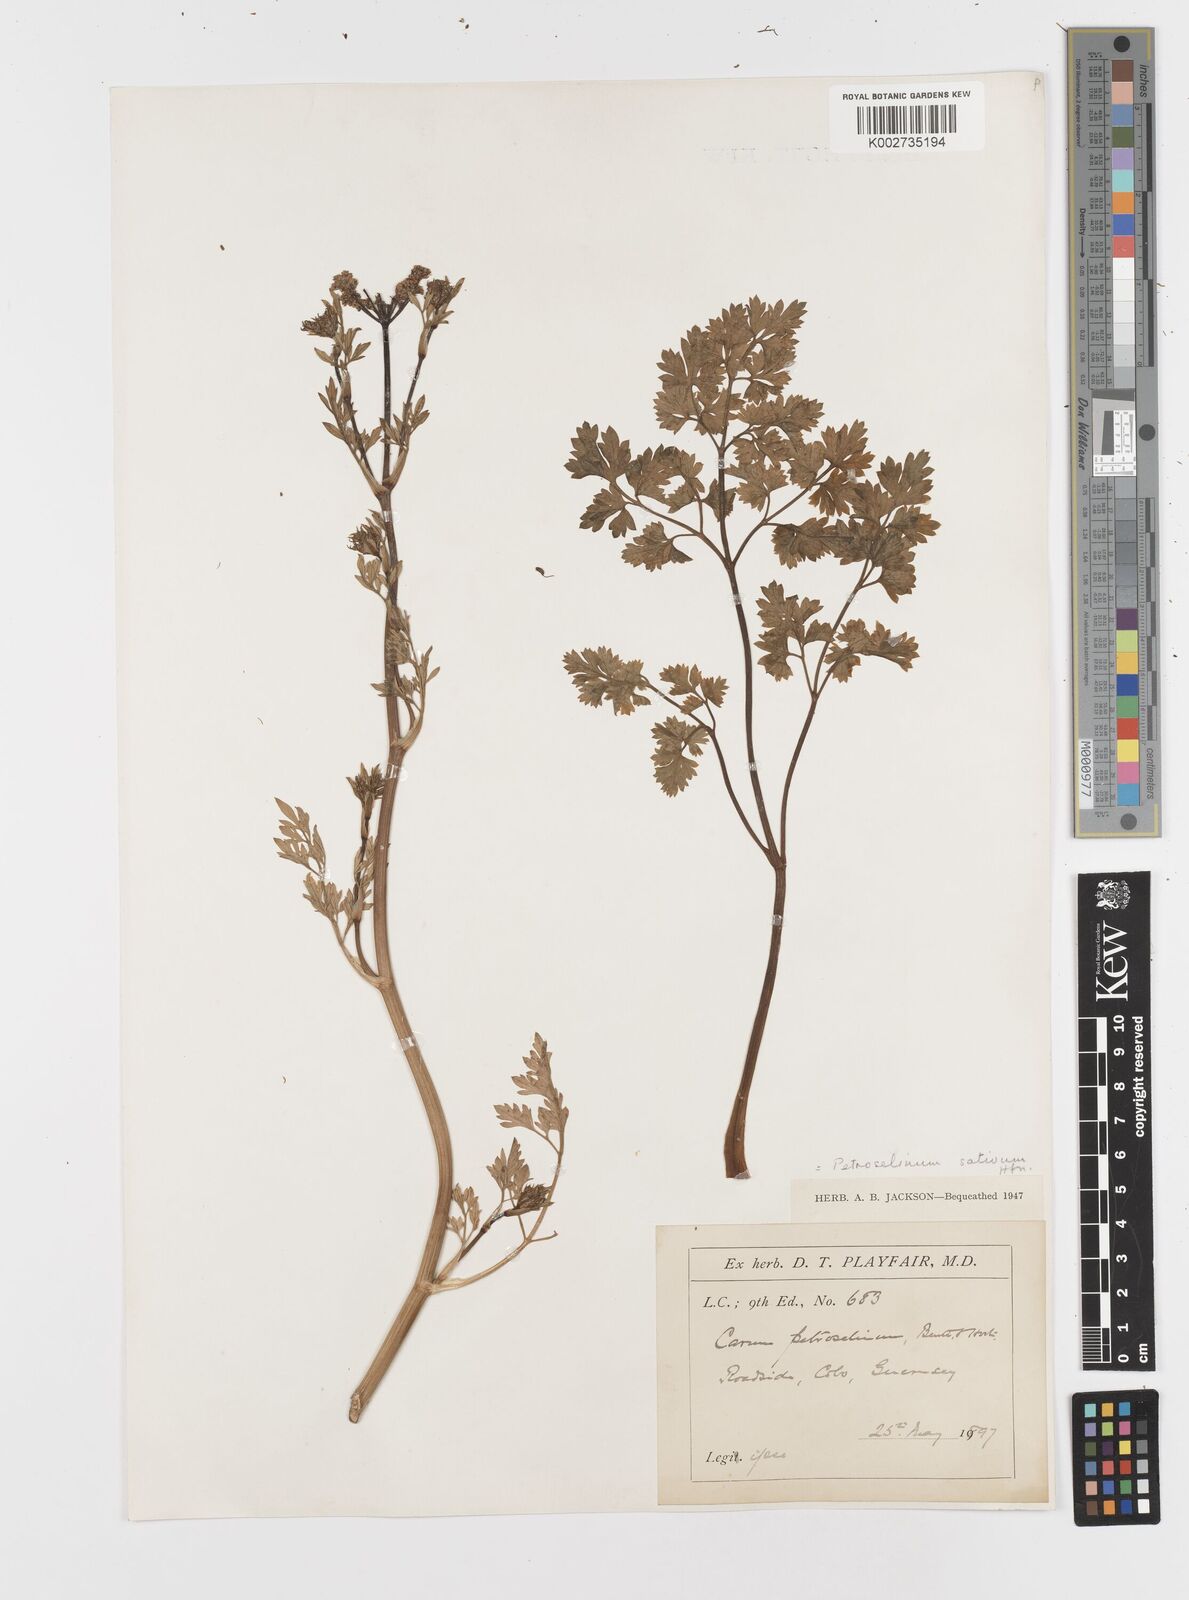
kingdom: Plantae
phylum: Tracheophyta
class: Magnoliopsida
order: Apiales
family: Apiaceae
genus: Petroselinum
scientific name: Petroselinum crispum
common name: Parsley
